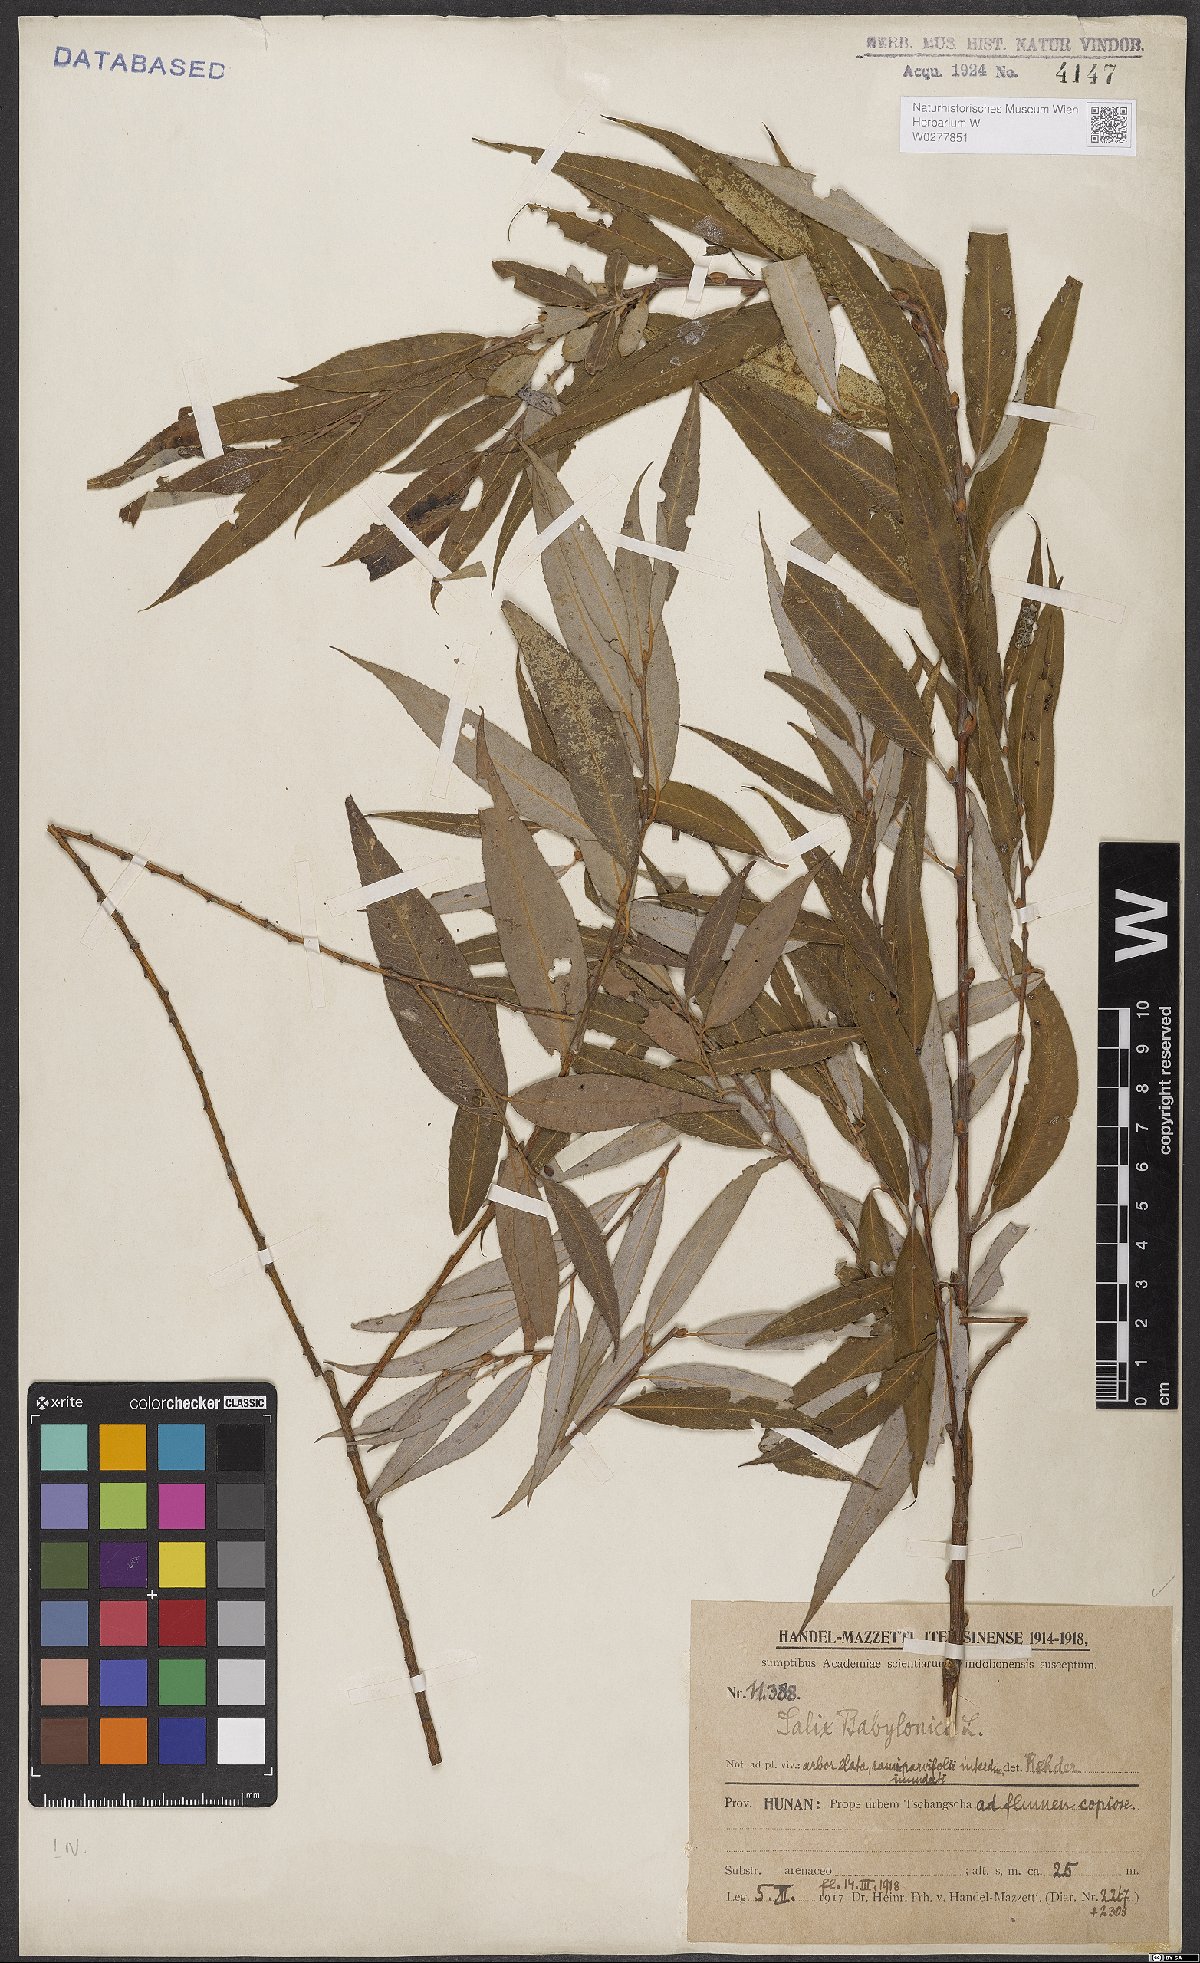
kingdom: Plantae
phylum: Tracheophyta
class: Magnoliopsida
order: Malpighiales
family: Salicaceae
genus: Salix
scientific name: Salix babylonica
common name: Weeping willow
